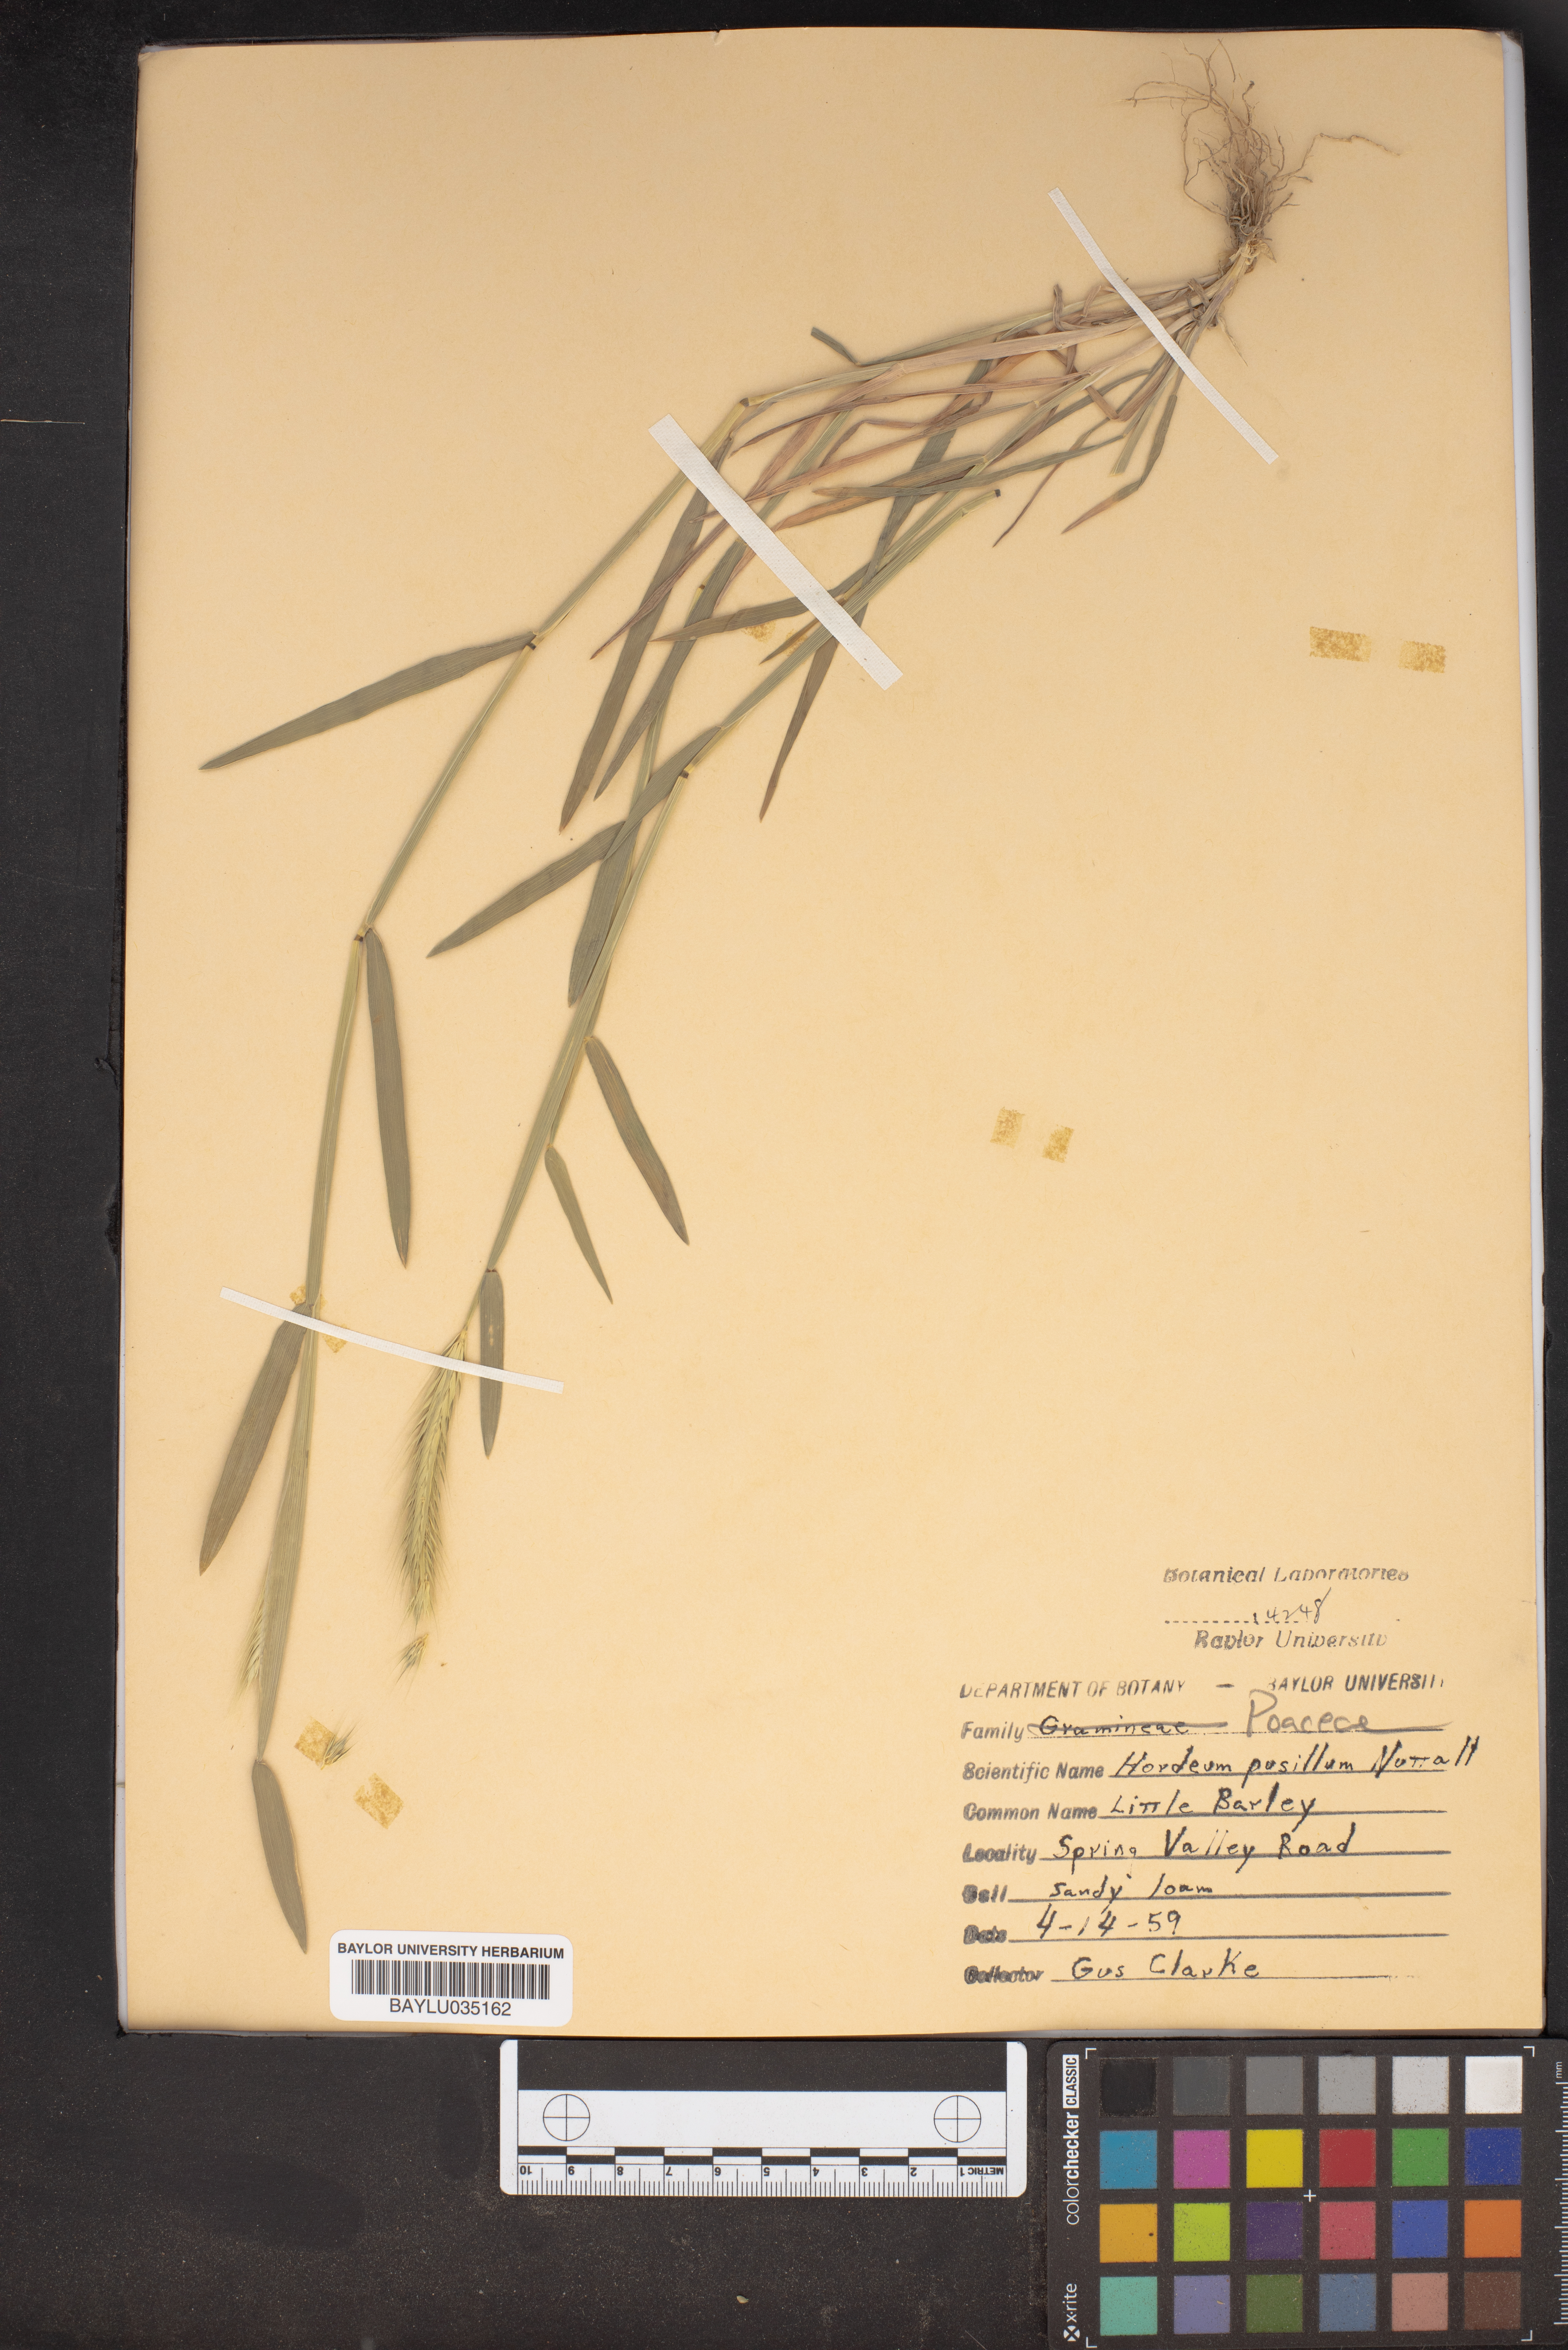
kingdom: Plantae
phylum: Tracheophyta
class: Liliopsida
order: Poales
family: Poaceae
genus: Hordeum
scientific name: Hordeum pusillum
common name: Little barley
